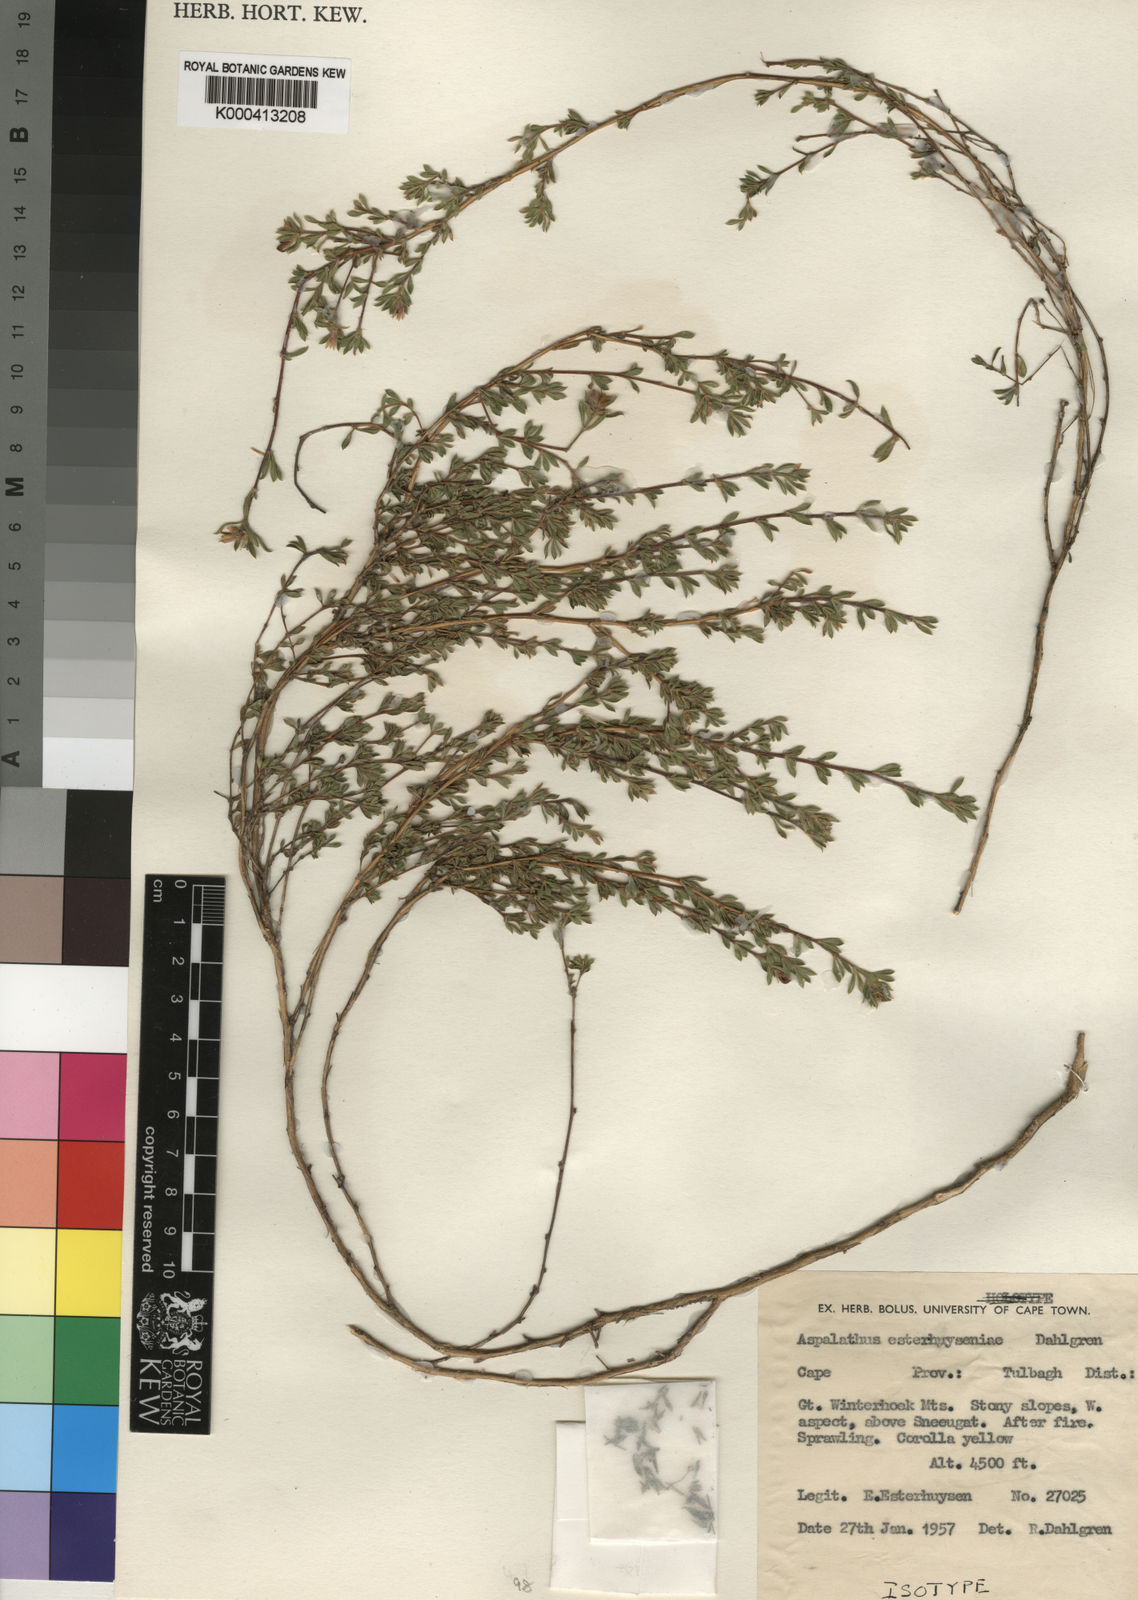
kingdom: Plantae
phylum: Tracheophyta
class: Magnoliopsida
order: Fabales
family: Fabaceae
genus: Aspalathus
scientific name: Aspalathus esterhuyseniae
